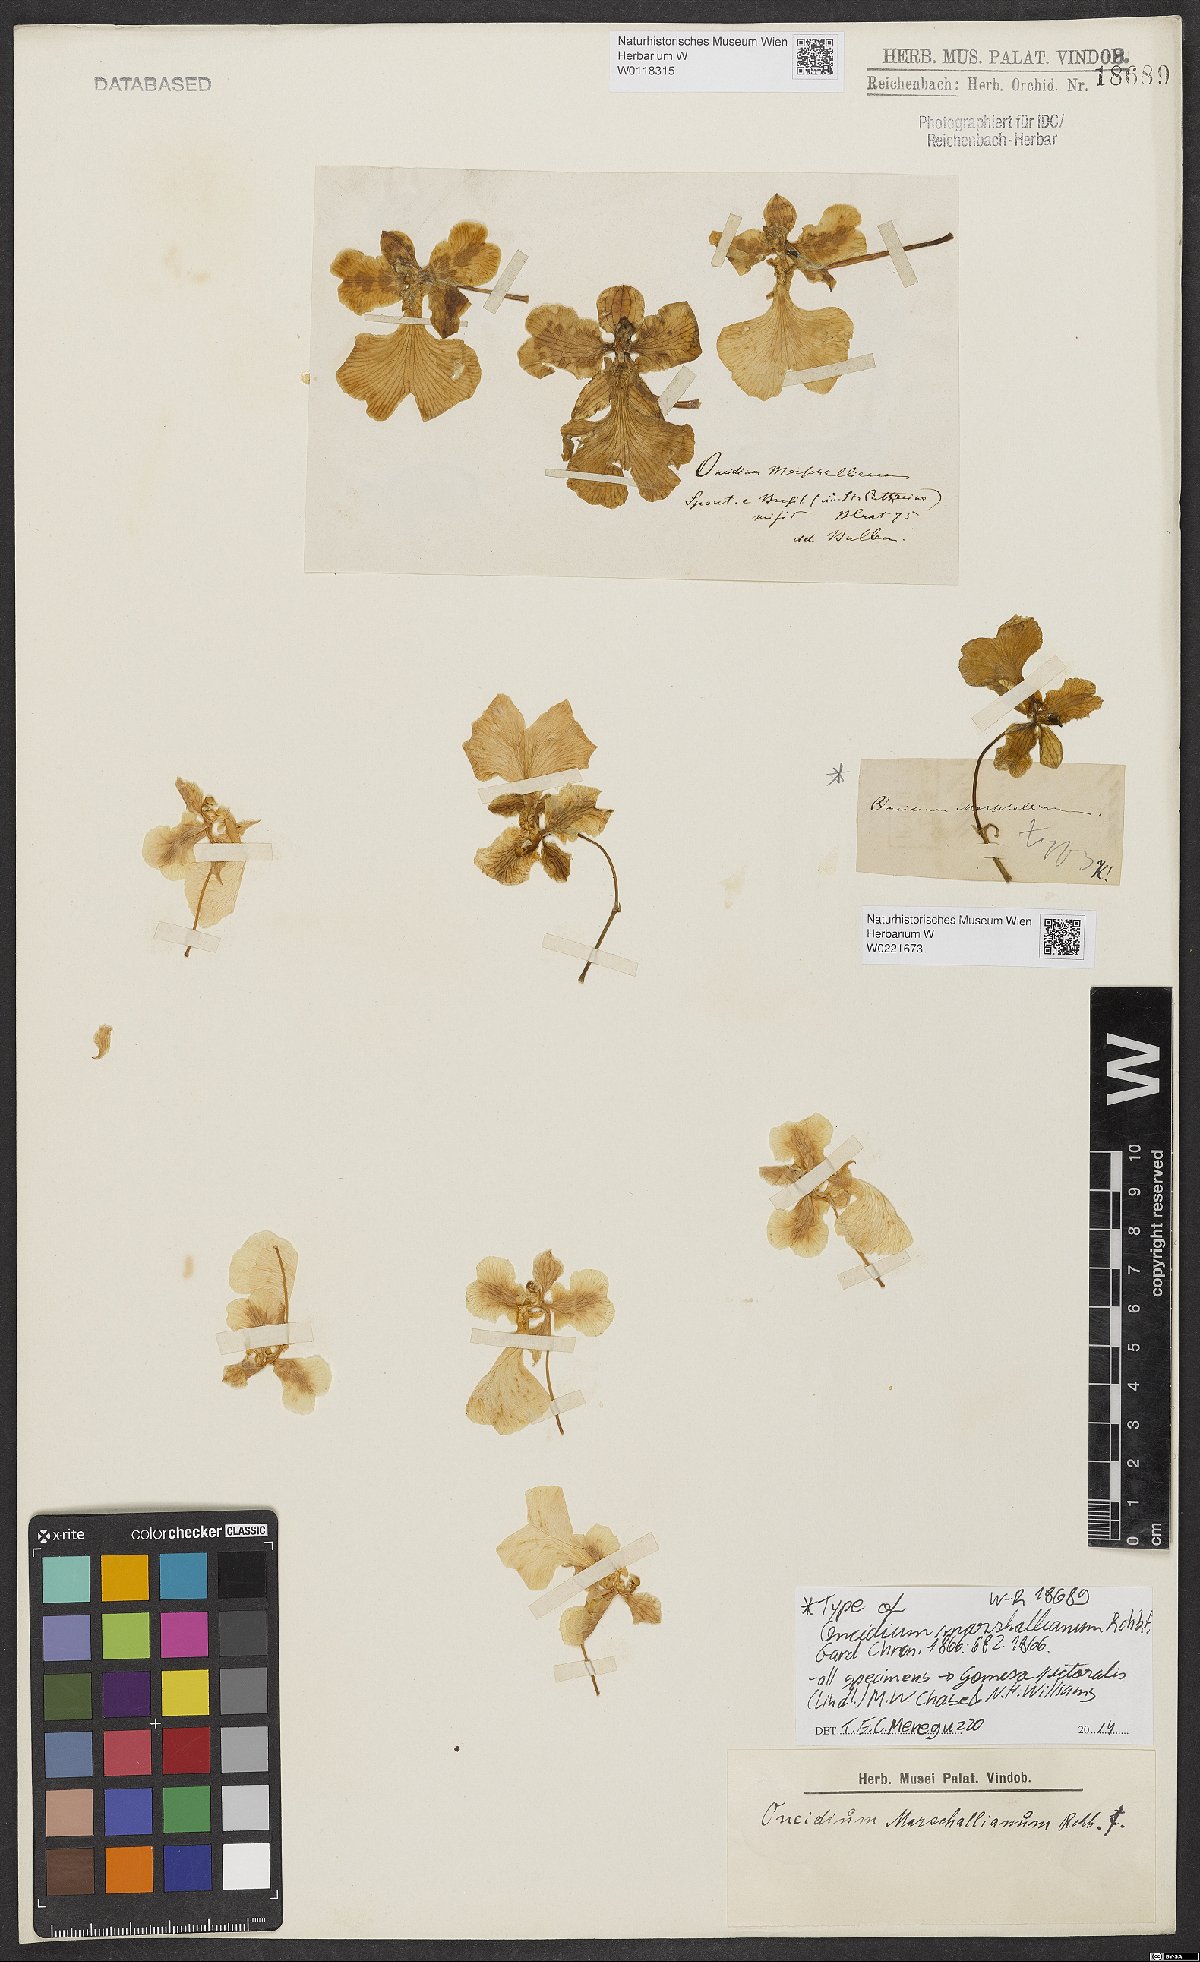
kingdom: Plantae
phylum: Tracheophyta
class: Liliopsida
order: Asparagales
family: Orchidaceae
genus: Gomesa
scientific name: Gomesa pectoralis
